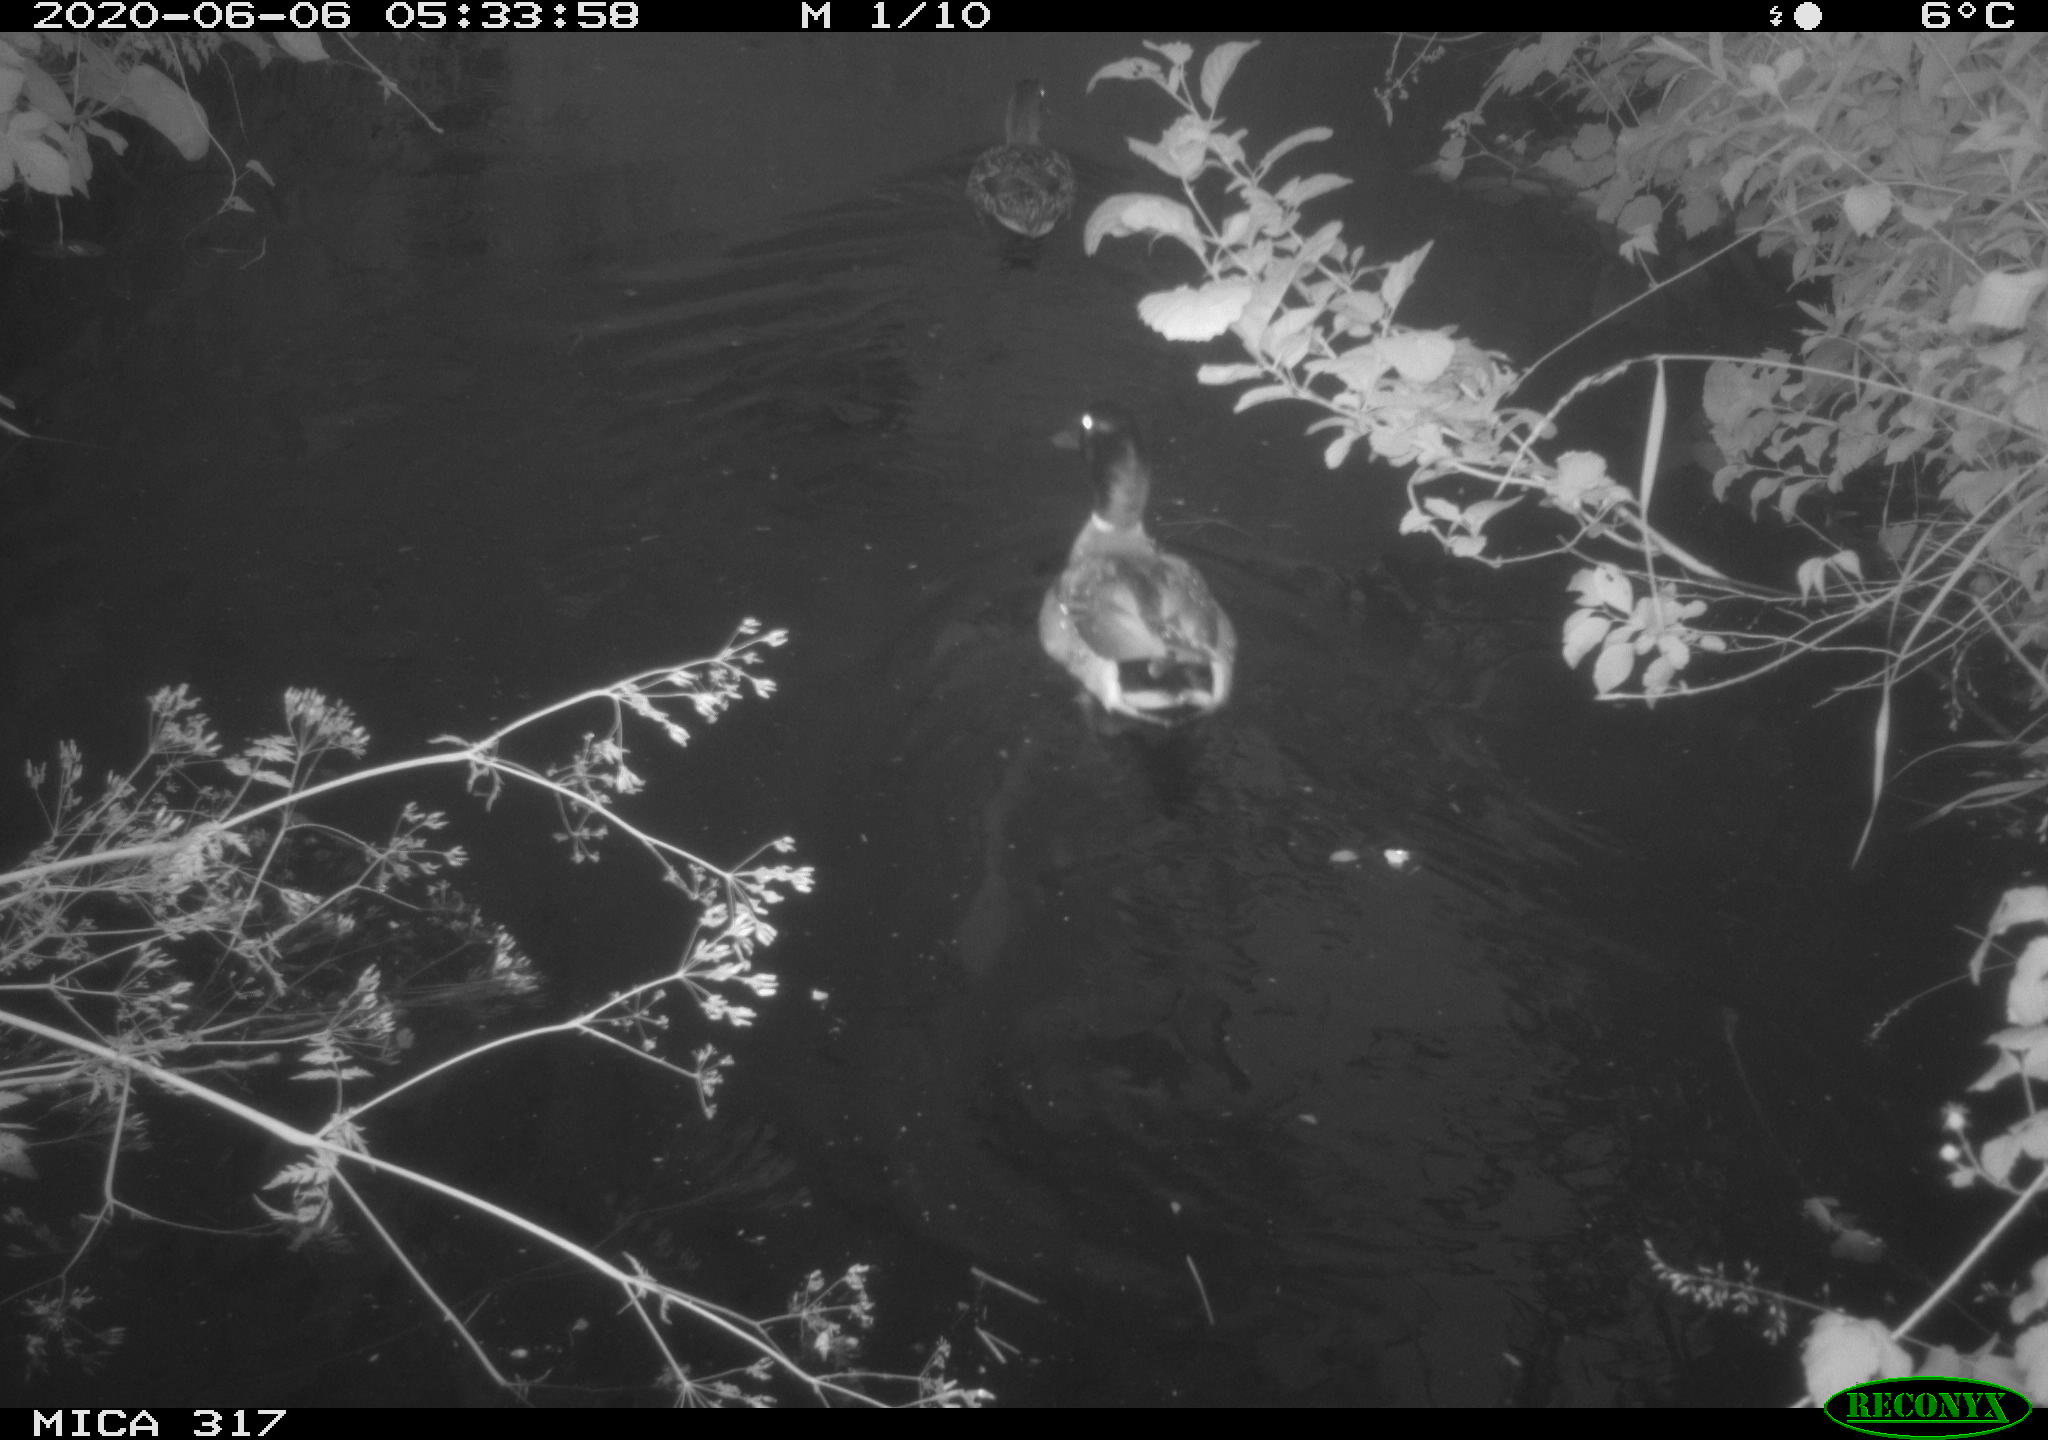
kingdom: Animalia
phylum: Chordata
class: Aves
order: Anseriformes
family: Anatidae
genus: Anas
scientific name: Anas platyrhynchos
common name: Mallard
